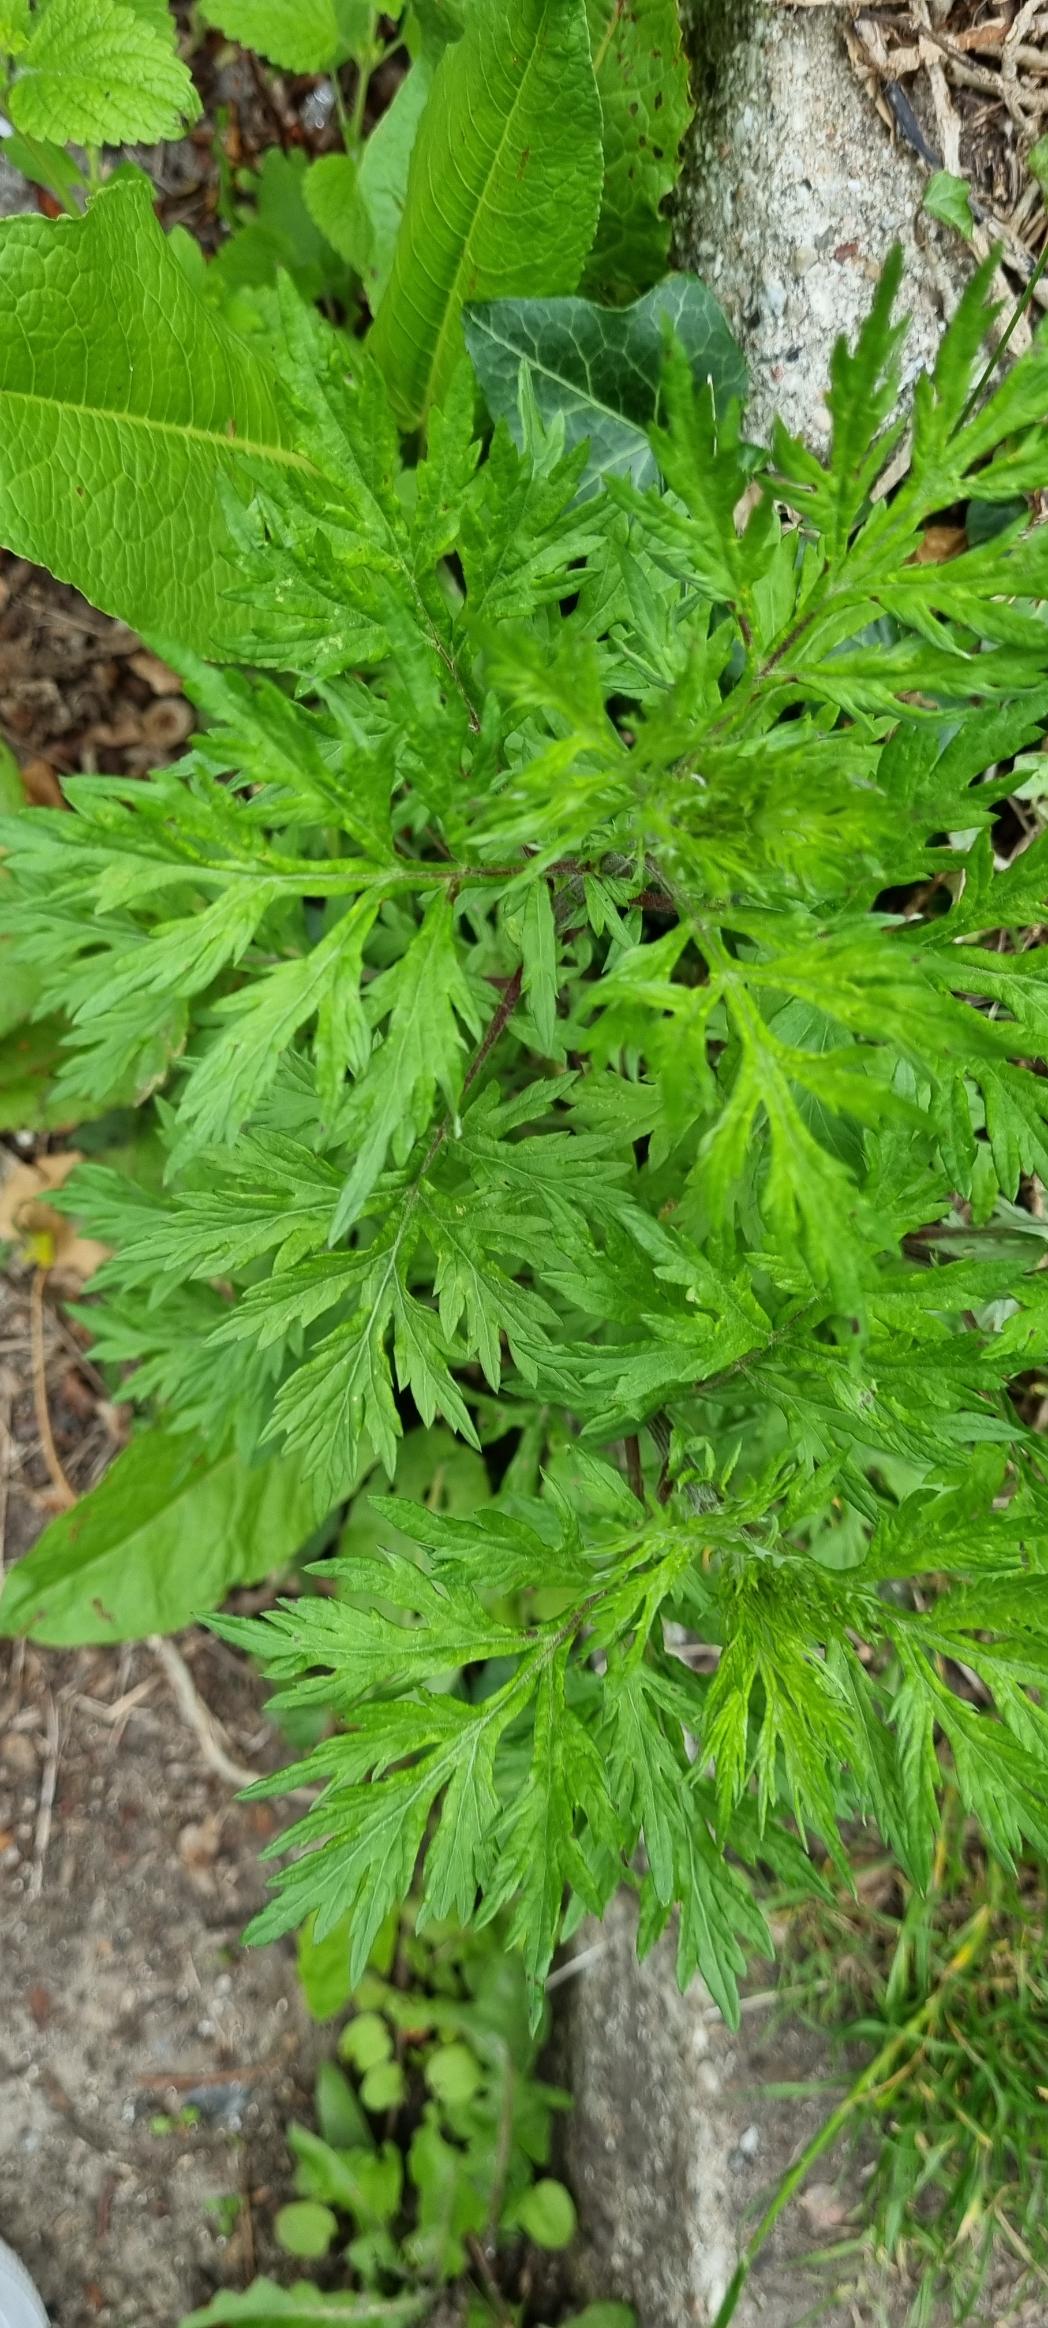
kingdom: Plantae
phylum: Tracheophyta
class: Magnoliopsida
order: Asterales
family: Asteraceae
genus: Artemisia
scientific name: Artemisia vulgaris
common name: Grå-bynke
